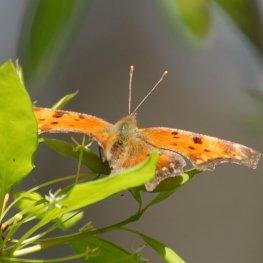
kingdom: Animalia
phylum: Arthropoda
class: Insecta
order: Lepidoptera
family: Nymphalidae
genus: Polygonia
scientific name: Polygonia progne
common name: Gray Comma
